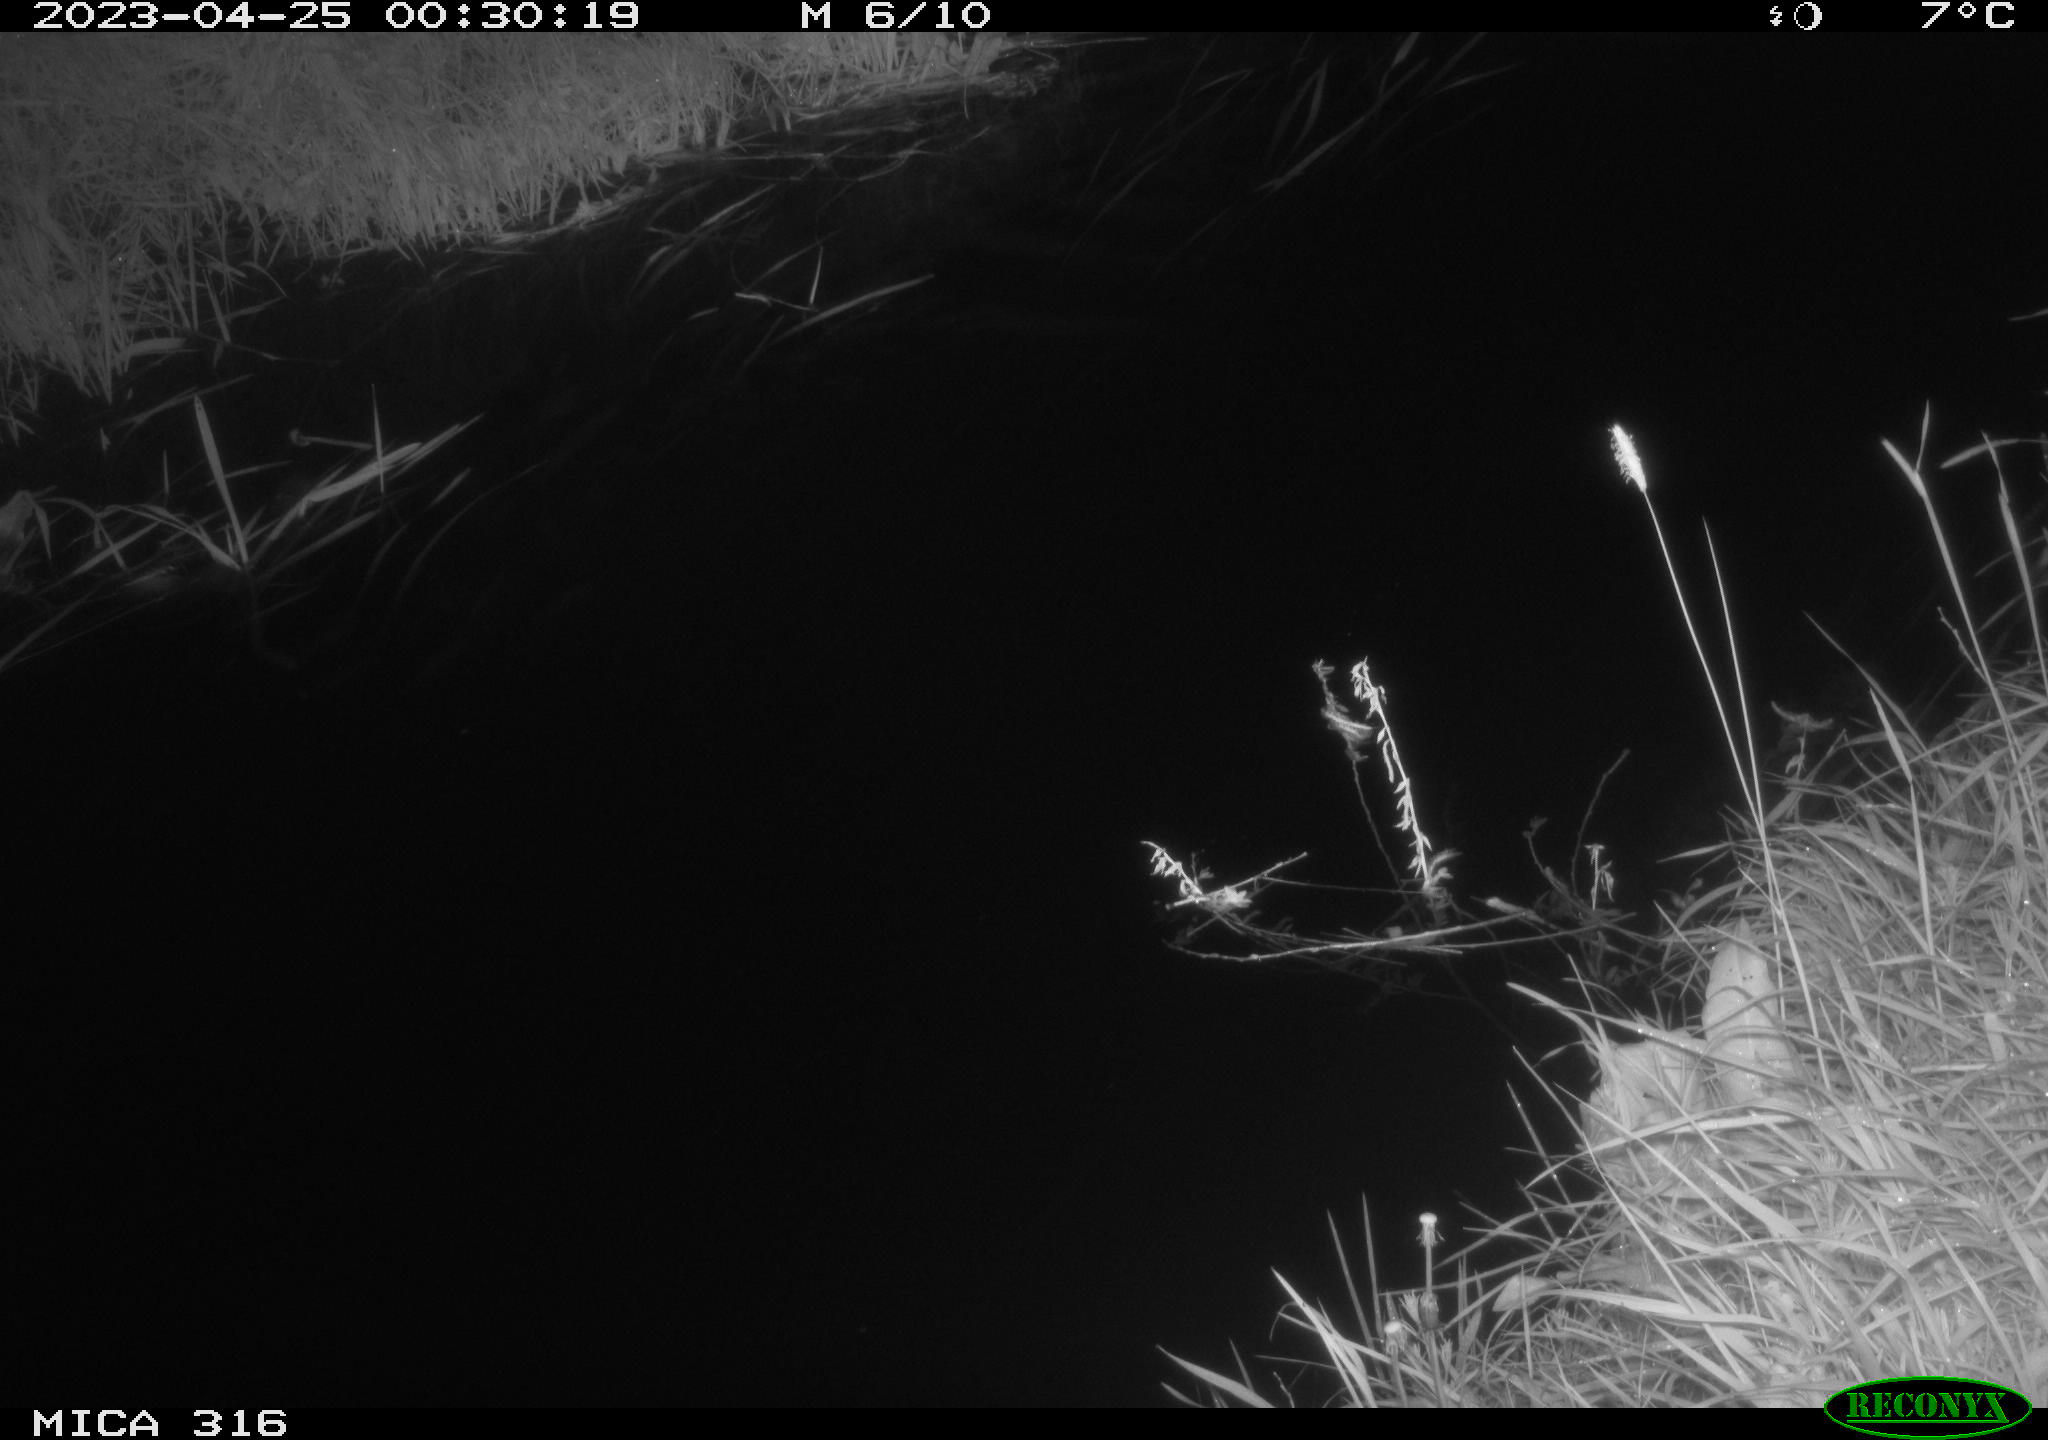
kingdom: Animalia
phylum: Chordata
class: Aves
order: Anseriformes
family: Anatidae
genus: Anas
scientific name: Anas
